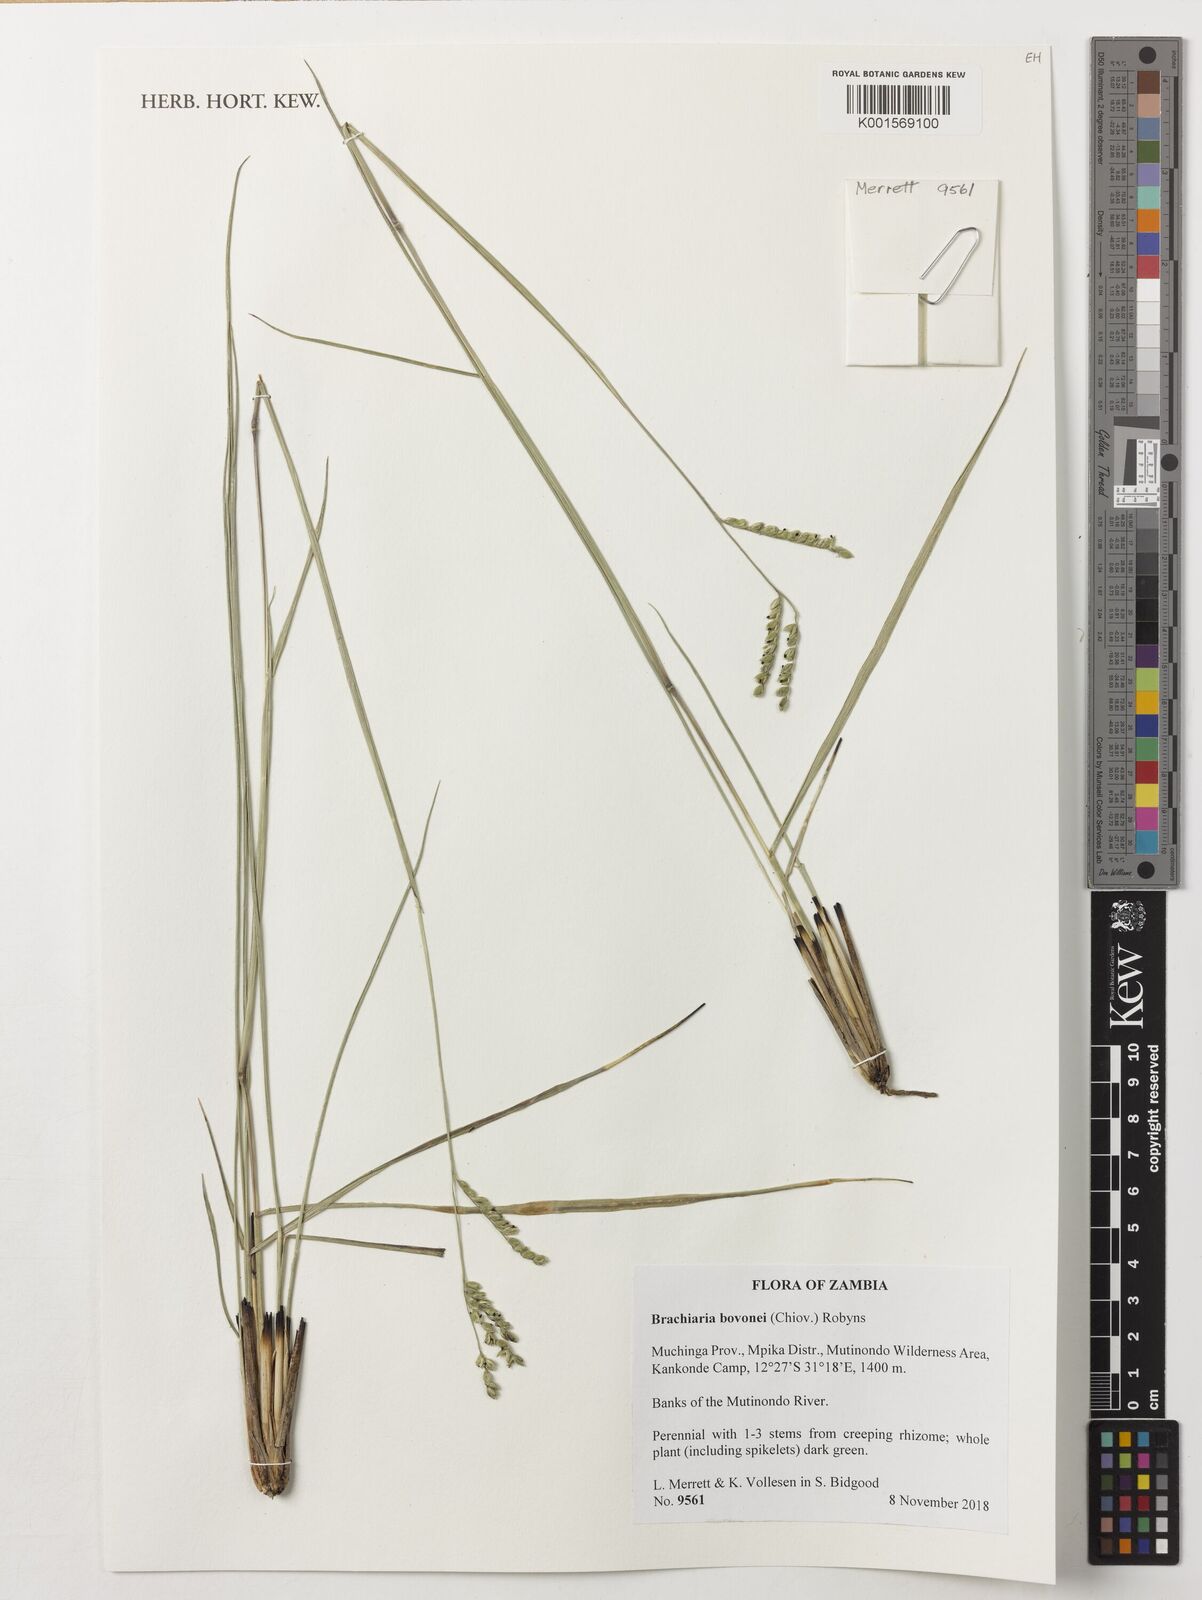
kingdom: Plantae
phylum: Tracheophyta
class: Liliopsida
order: Poales
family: Poaceae
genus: Urochloa
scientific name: Urochloa bovonei
